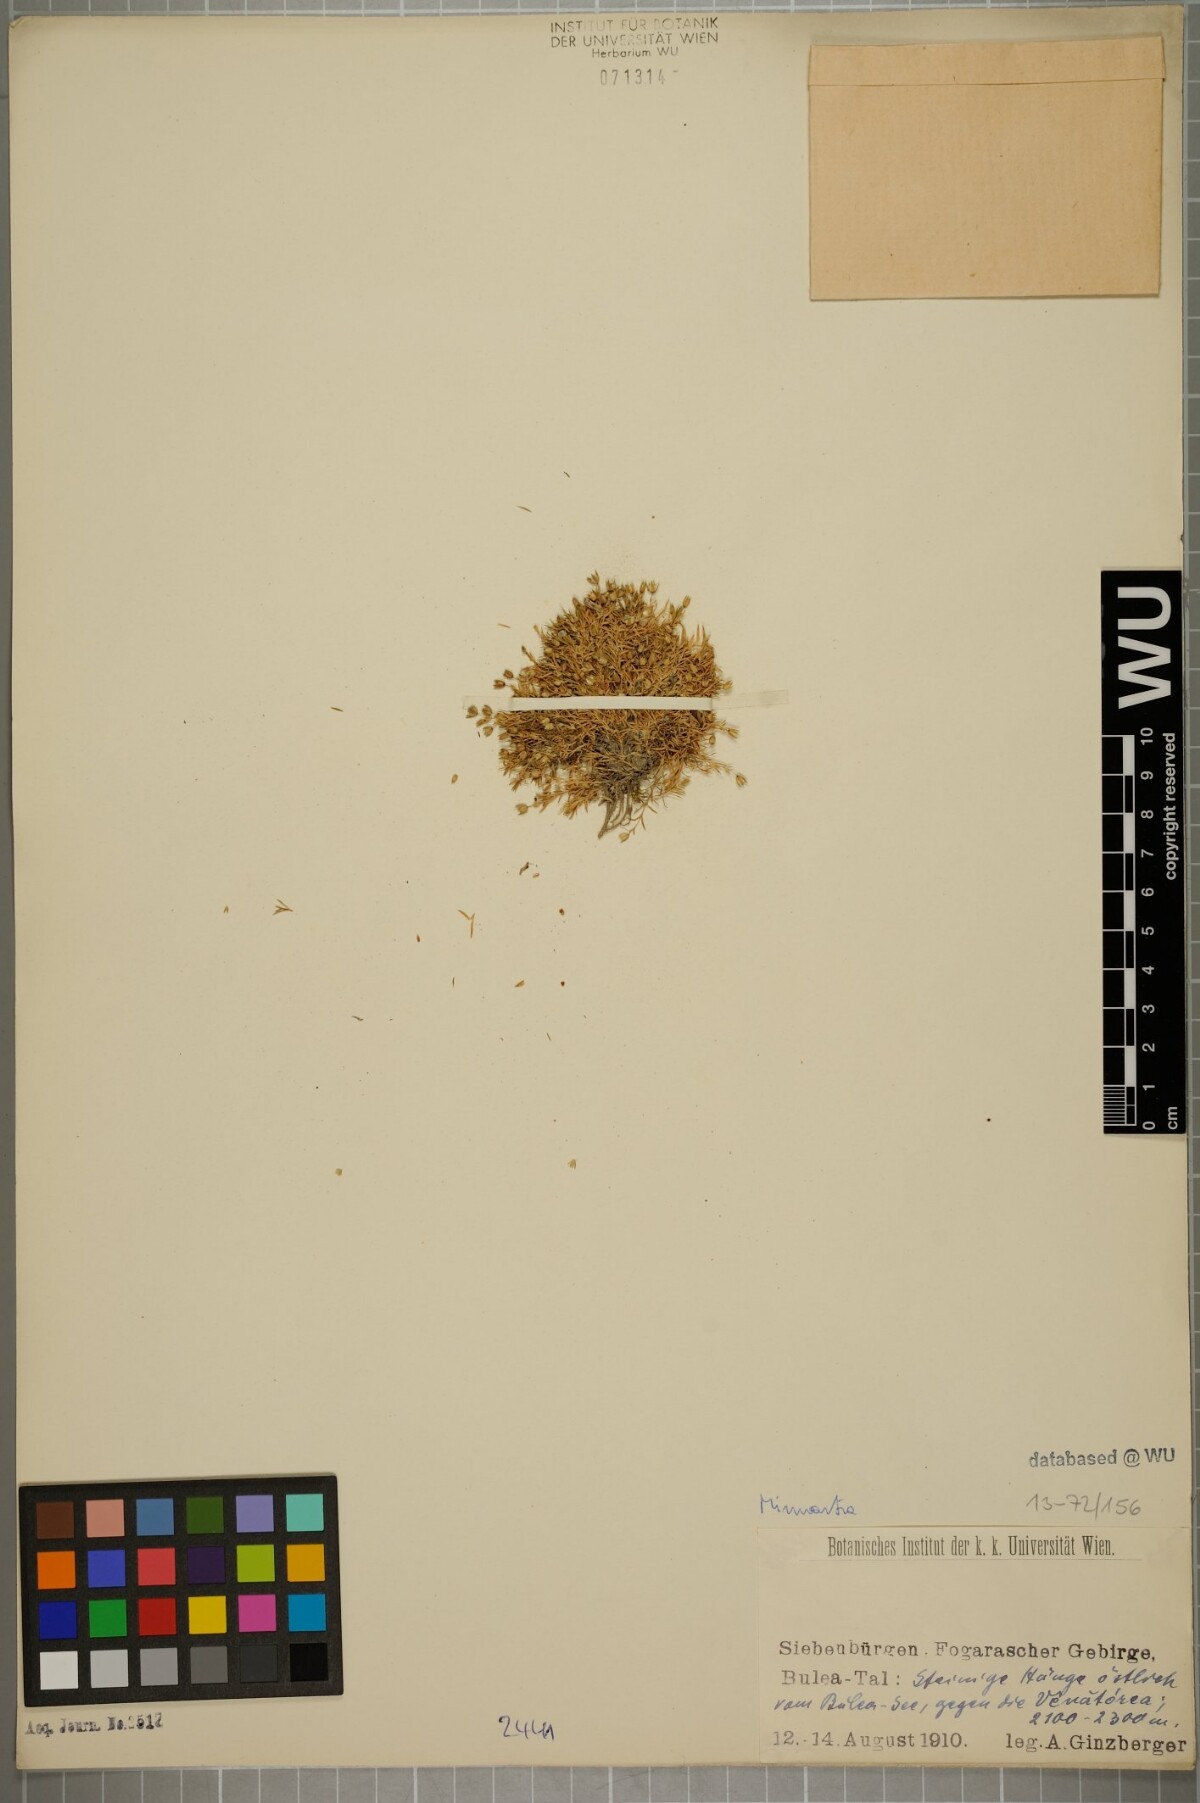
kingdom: Plantae
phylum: Tracheophyta
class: Magnoliopsida
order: Caryophyllales
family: Caryophyllaceae
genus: Sabulina
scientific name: Sabulina verna
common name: Spring sandwort
